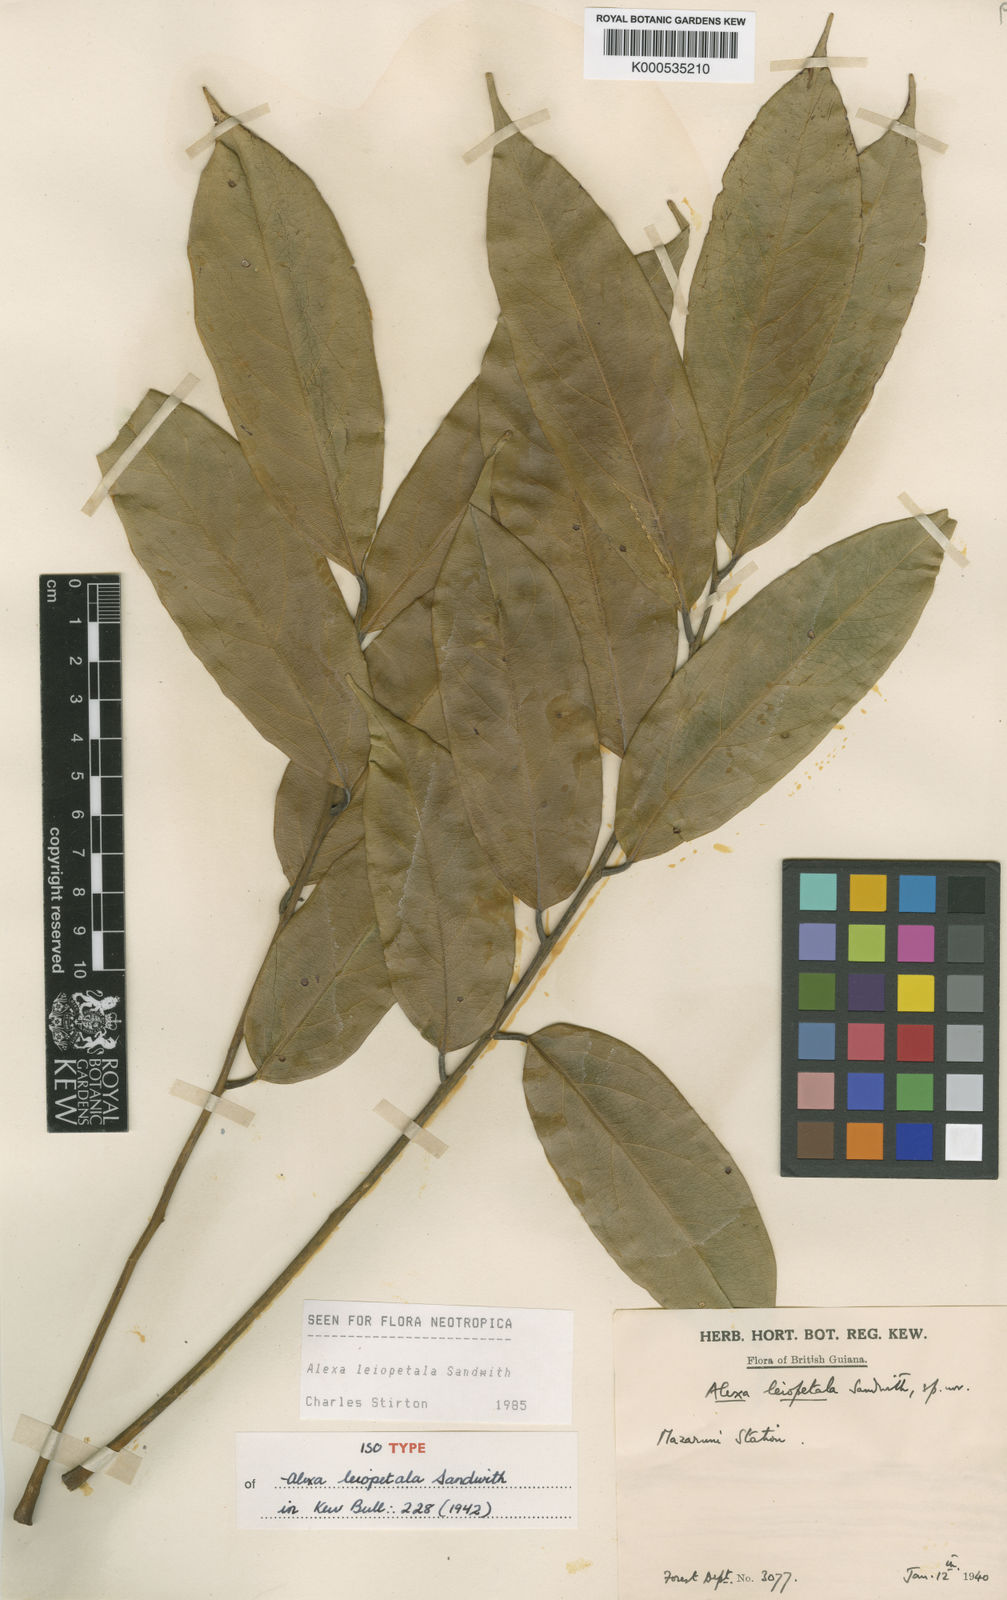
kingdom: Plantae
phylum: Tracheophyta
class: Magnoliopsida
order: Fabales
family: Fabaceae
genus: Alexa
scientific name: Alexa leiopetala
